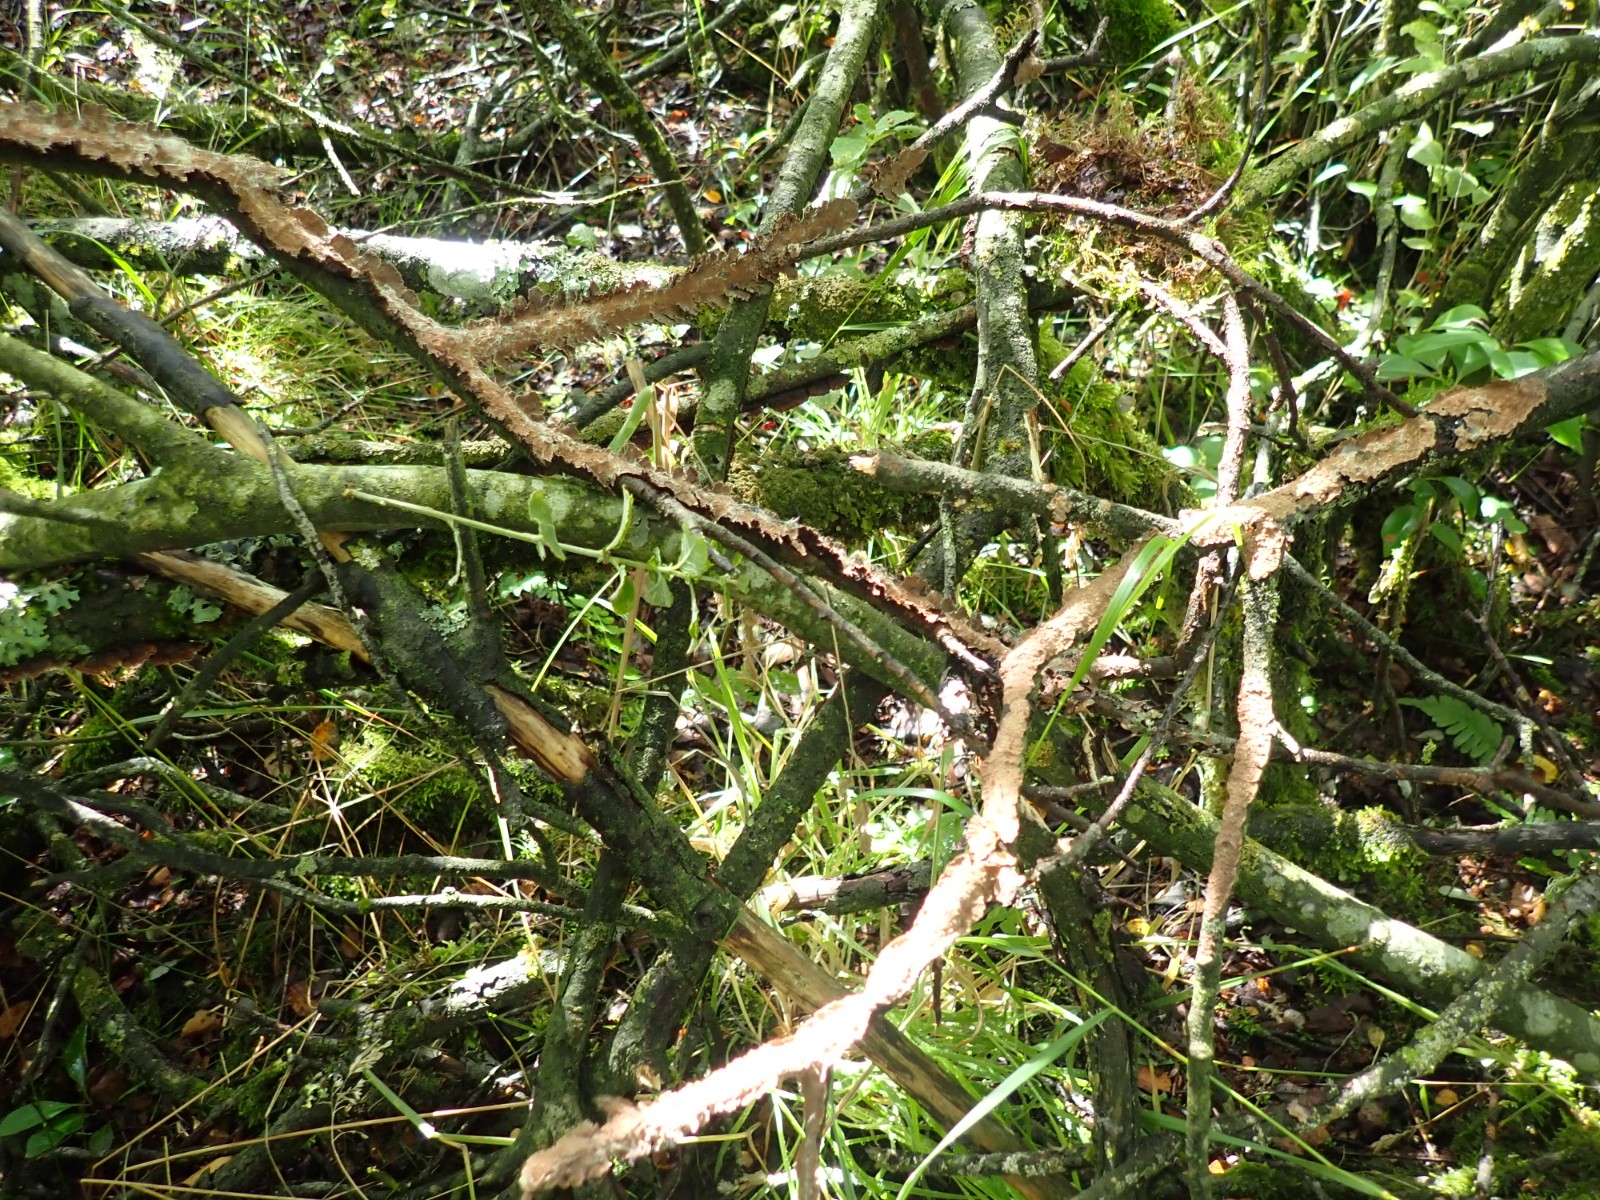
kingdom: Fungi
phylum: Basidiomycota
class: Agaricomycetes
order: Hymenochaetales
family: Hymenochaetaceae
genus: Hydnoporia
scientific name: Hydnoporia tabacina
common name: tobaksbrun ruslædersvamp
